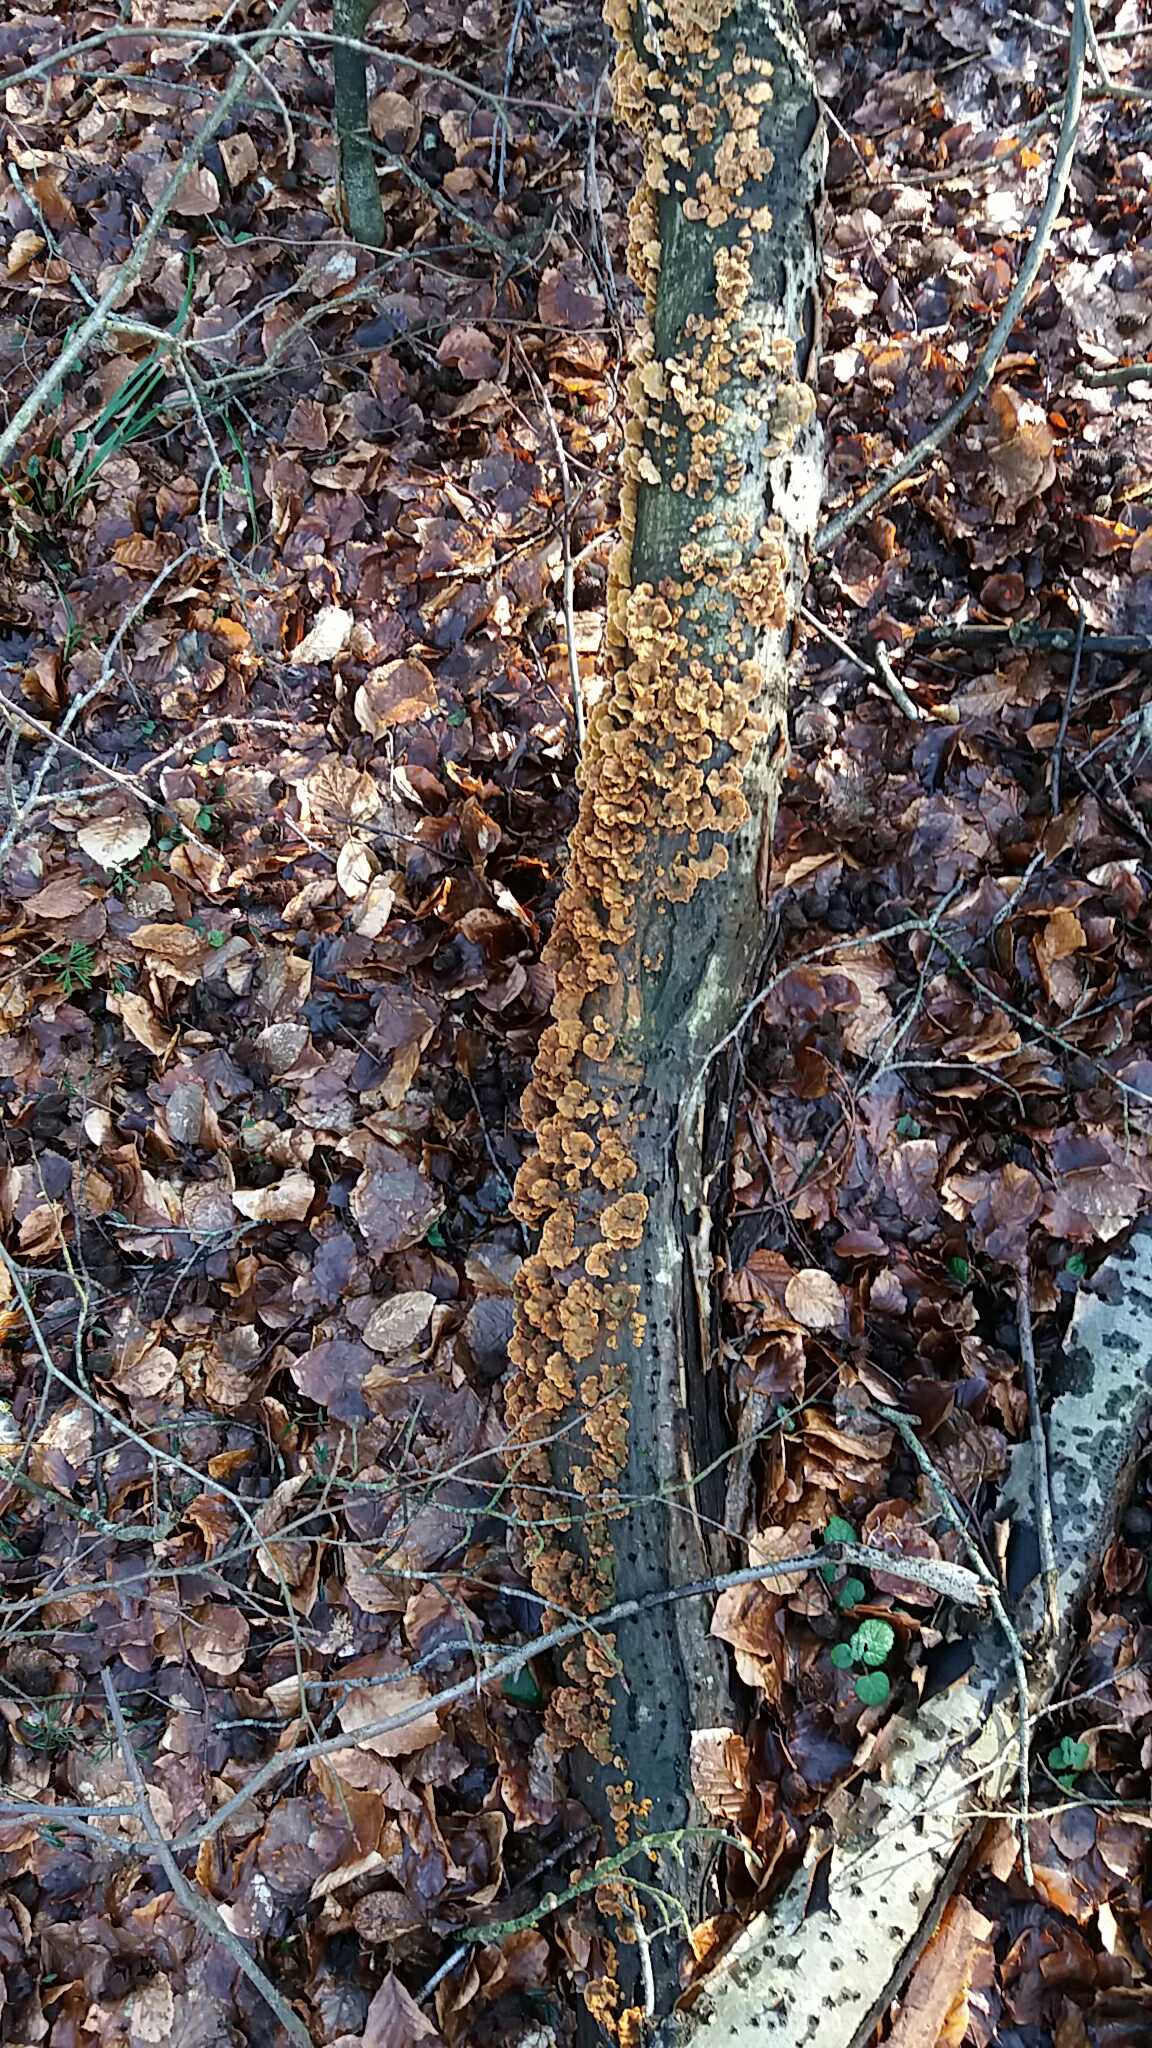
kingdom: Fungi
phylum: Basidiomycota
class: Agaricomycetes
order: Russulales
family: Stereaceae
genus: Stereum
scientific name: Stereum hirsutum
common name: håret lædersvamp
